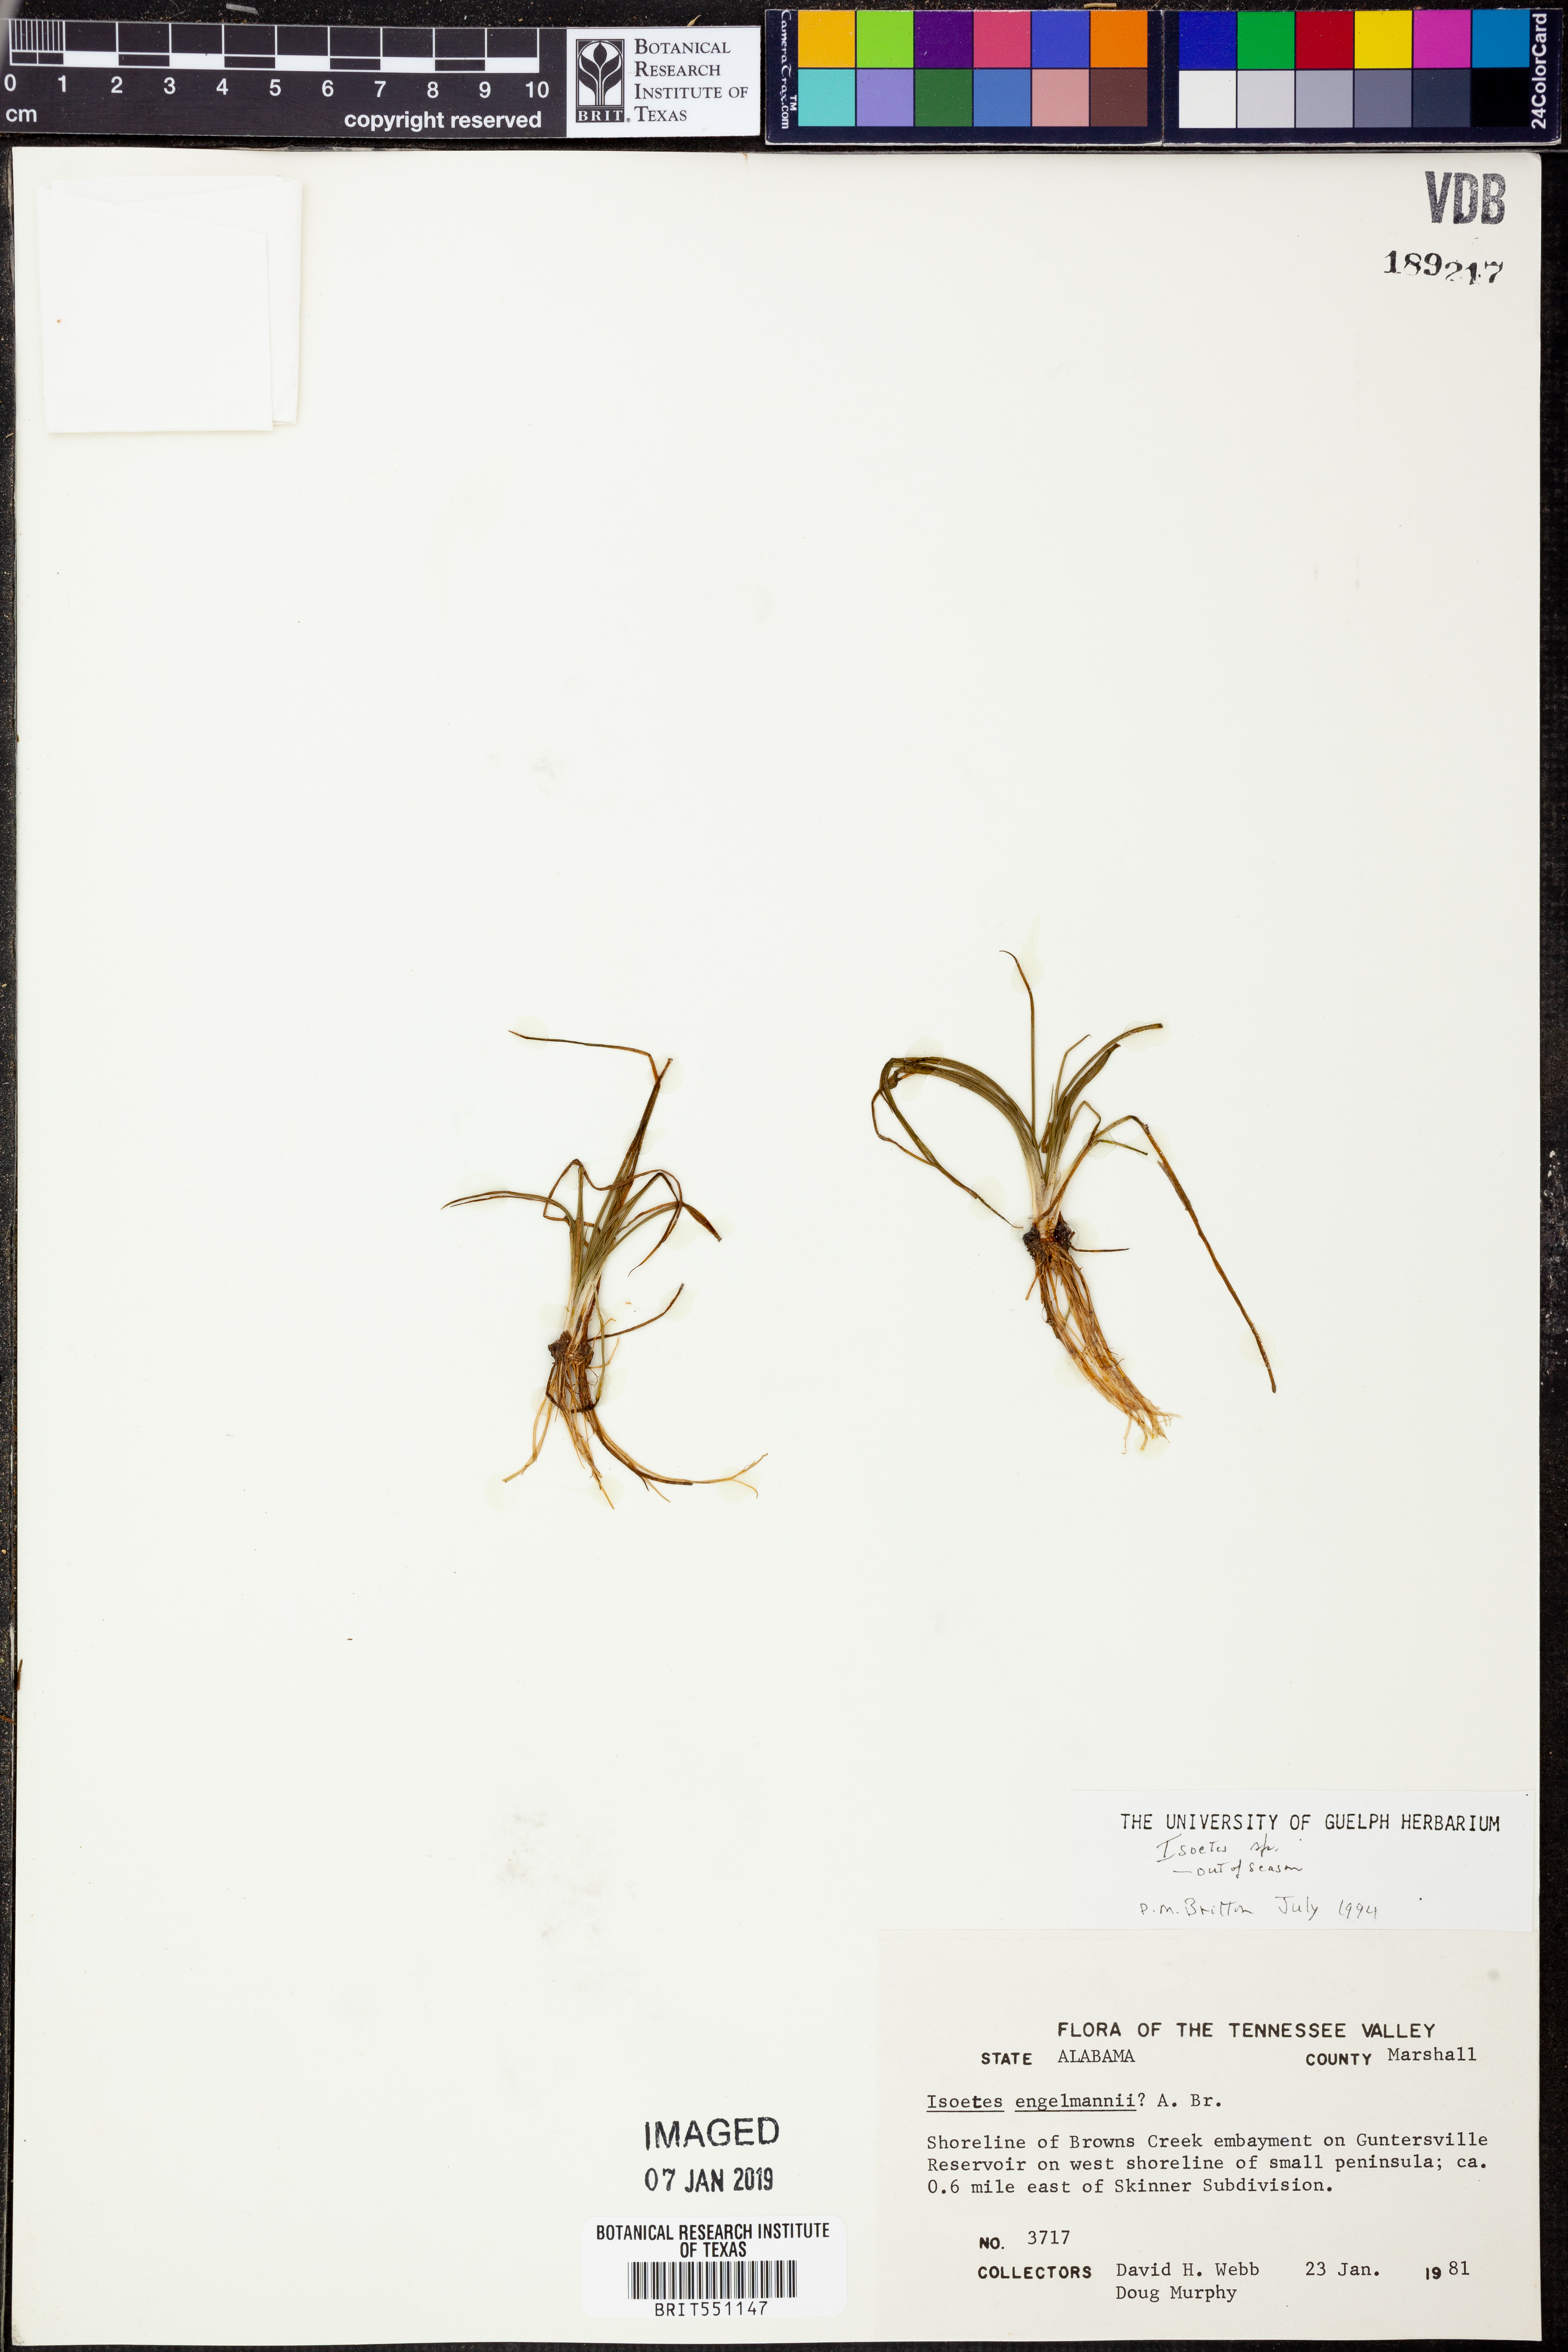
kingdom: Plantae
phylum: Tracheophyta
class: Lycopodiopsida
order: Isoetales
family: Isoetaceae
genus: Isoetes
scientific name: Isoetes engelmannii
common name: Engelmann's quillwort
